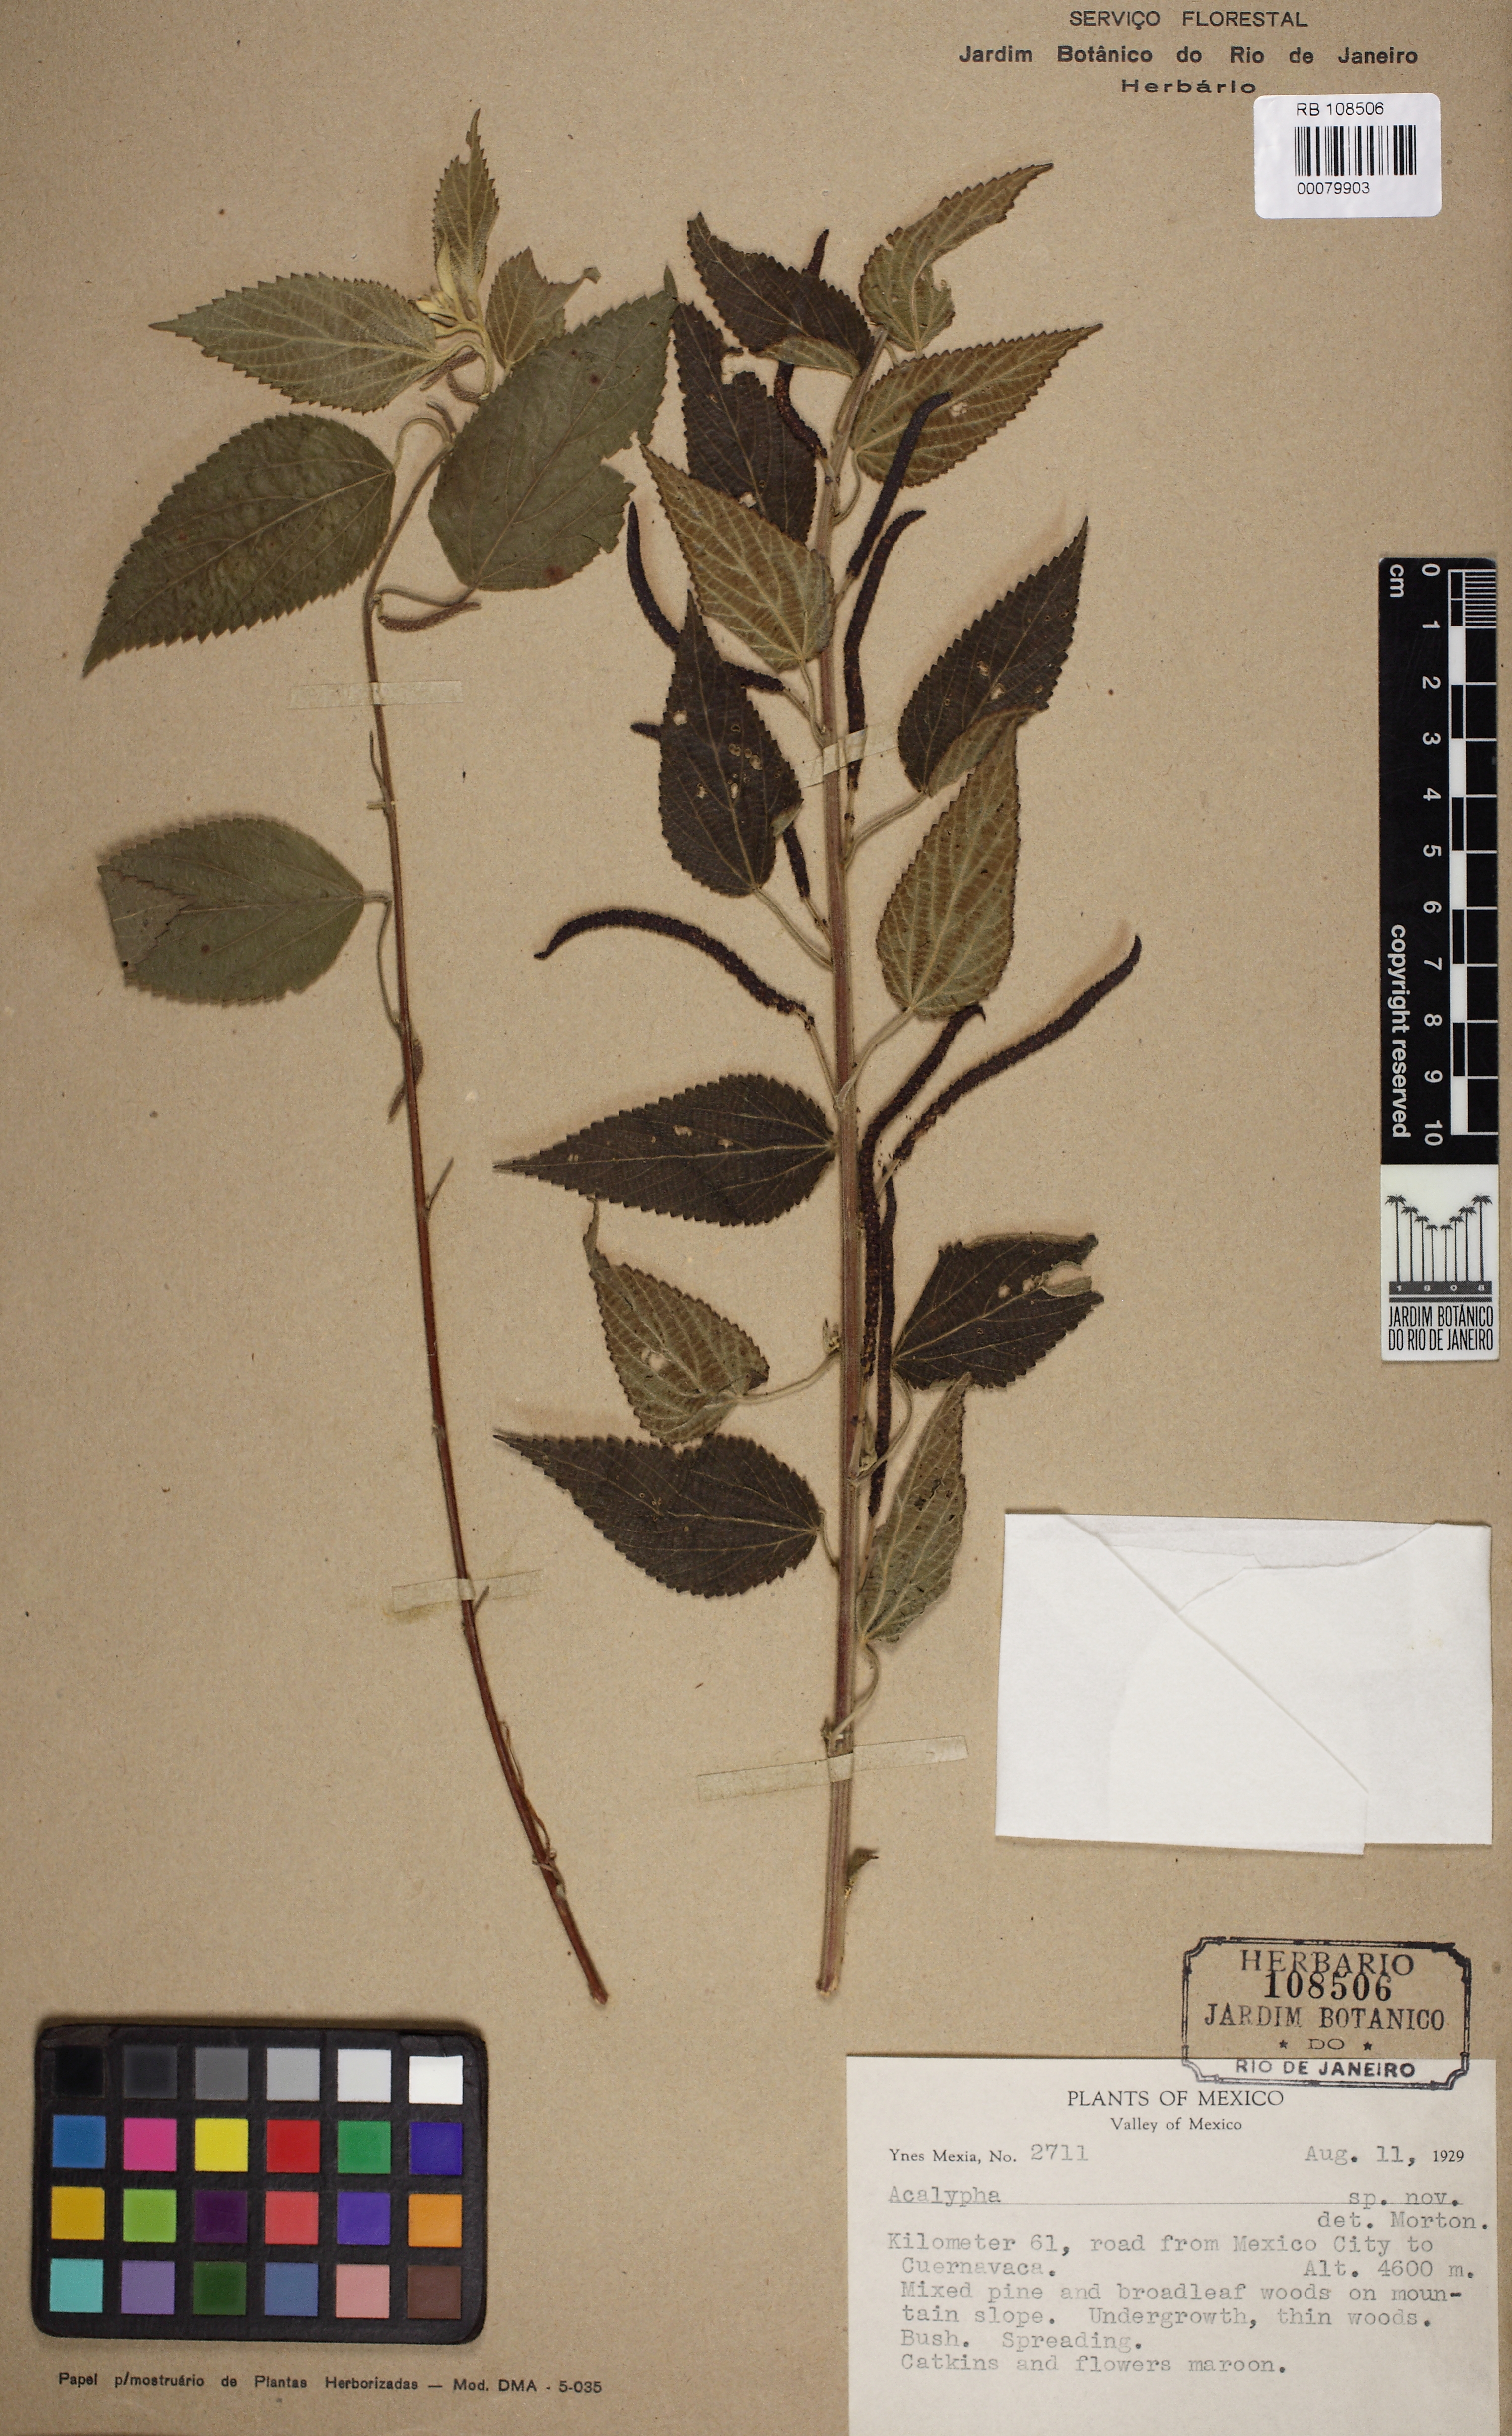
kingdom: Plantae
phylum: Tracheophyta
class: Magnoliopsida
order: Malpighiales
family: Euphorbiaceae
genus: Acalypha
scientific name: Acalypha
